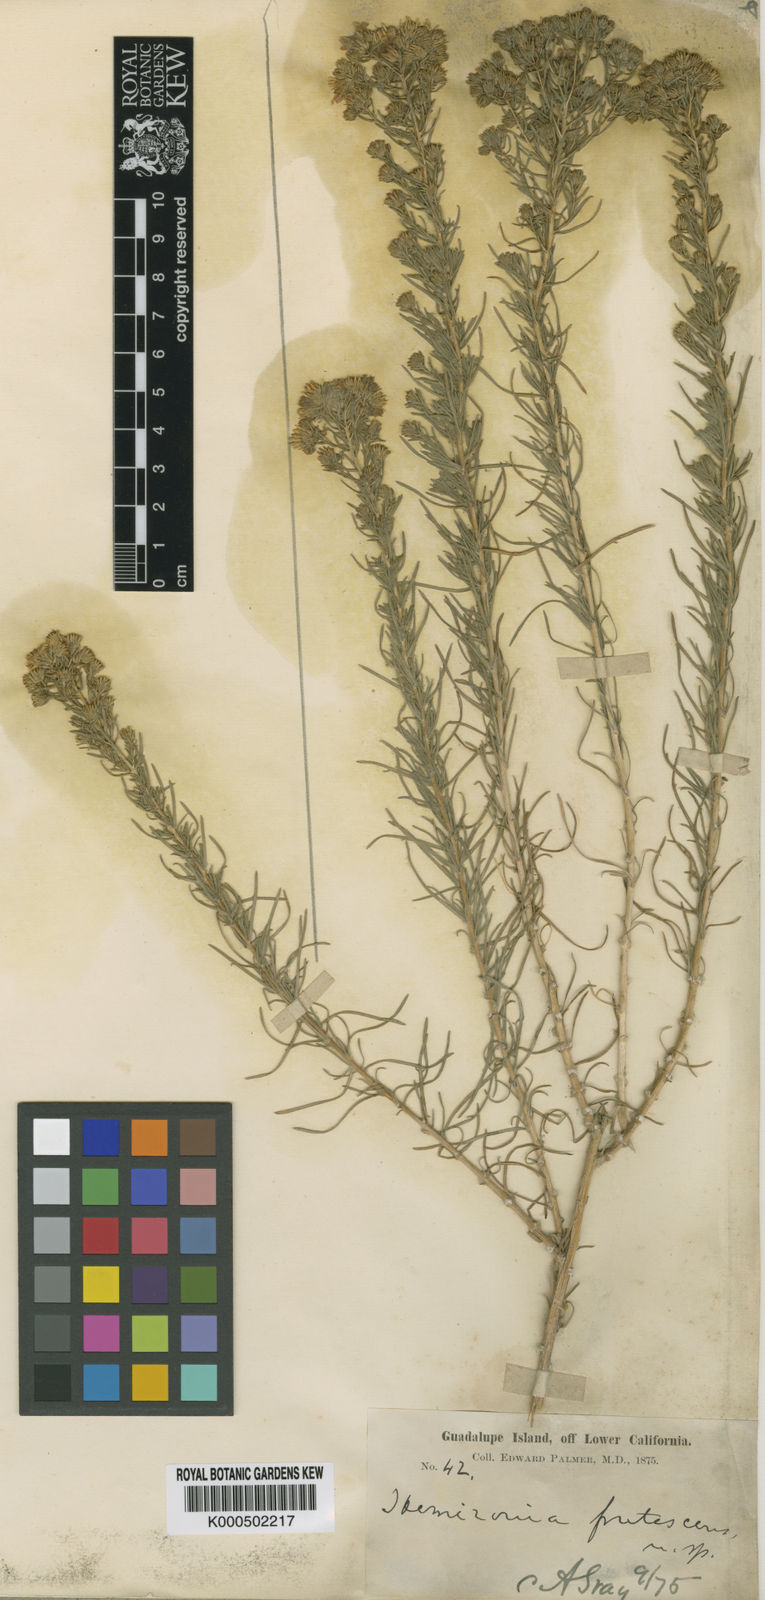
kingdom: Plantae
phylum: Tracheophyta
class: Magnoliopsida
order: Asterales
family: Asteraceae
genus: Deinandra
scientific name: Deinandra frutescens
